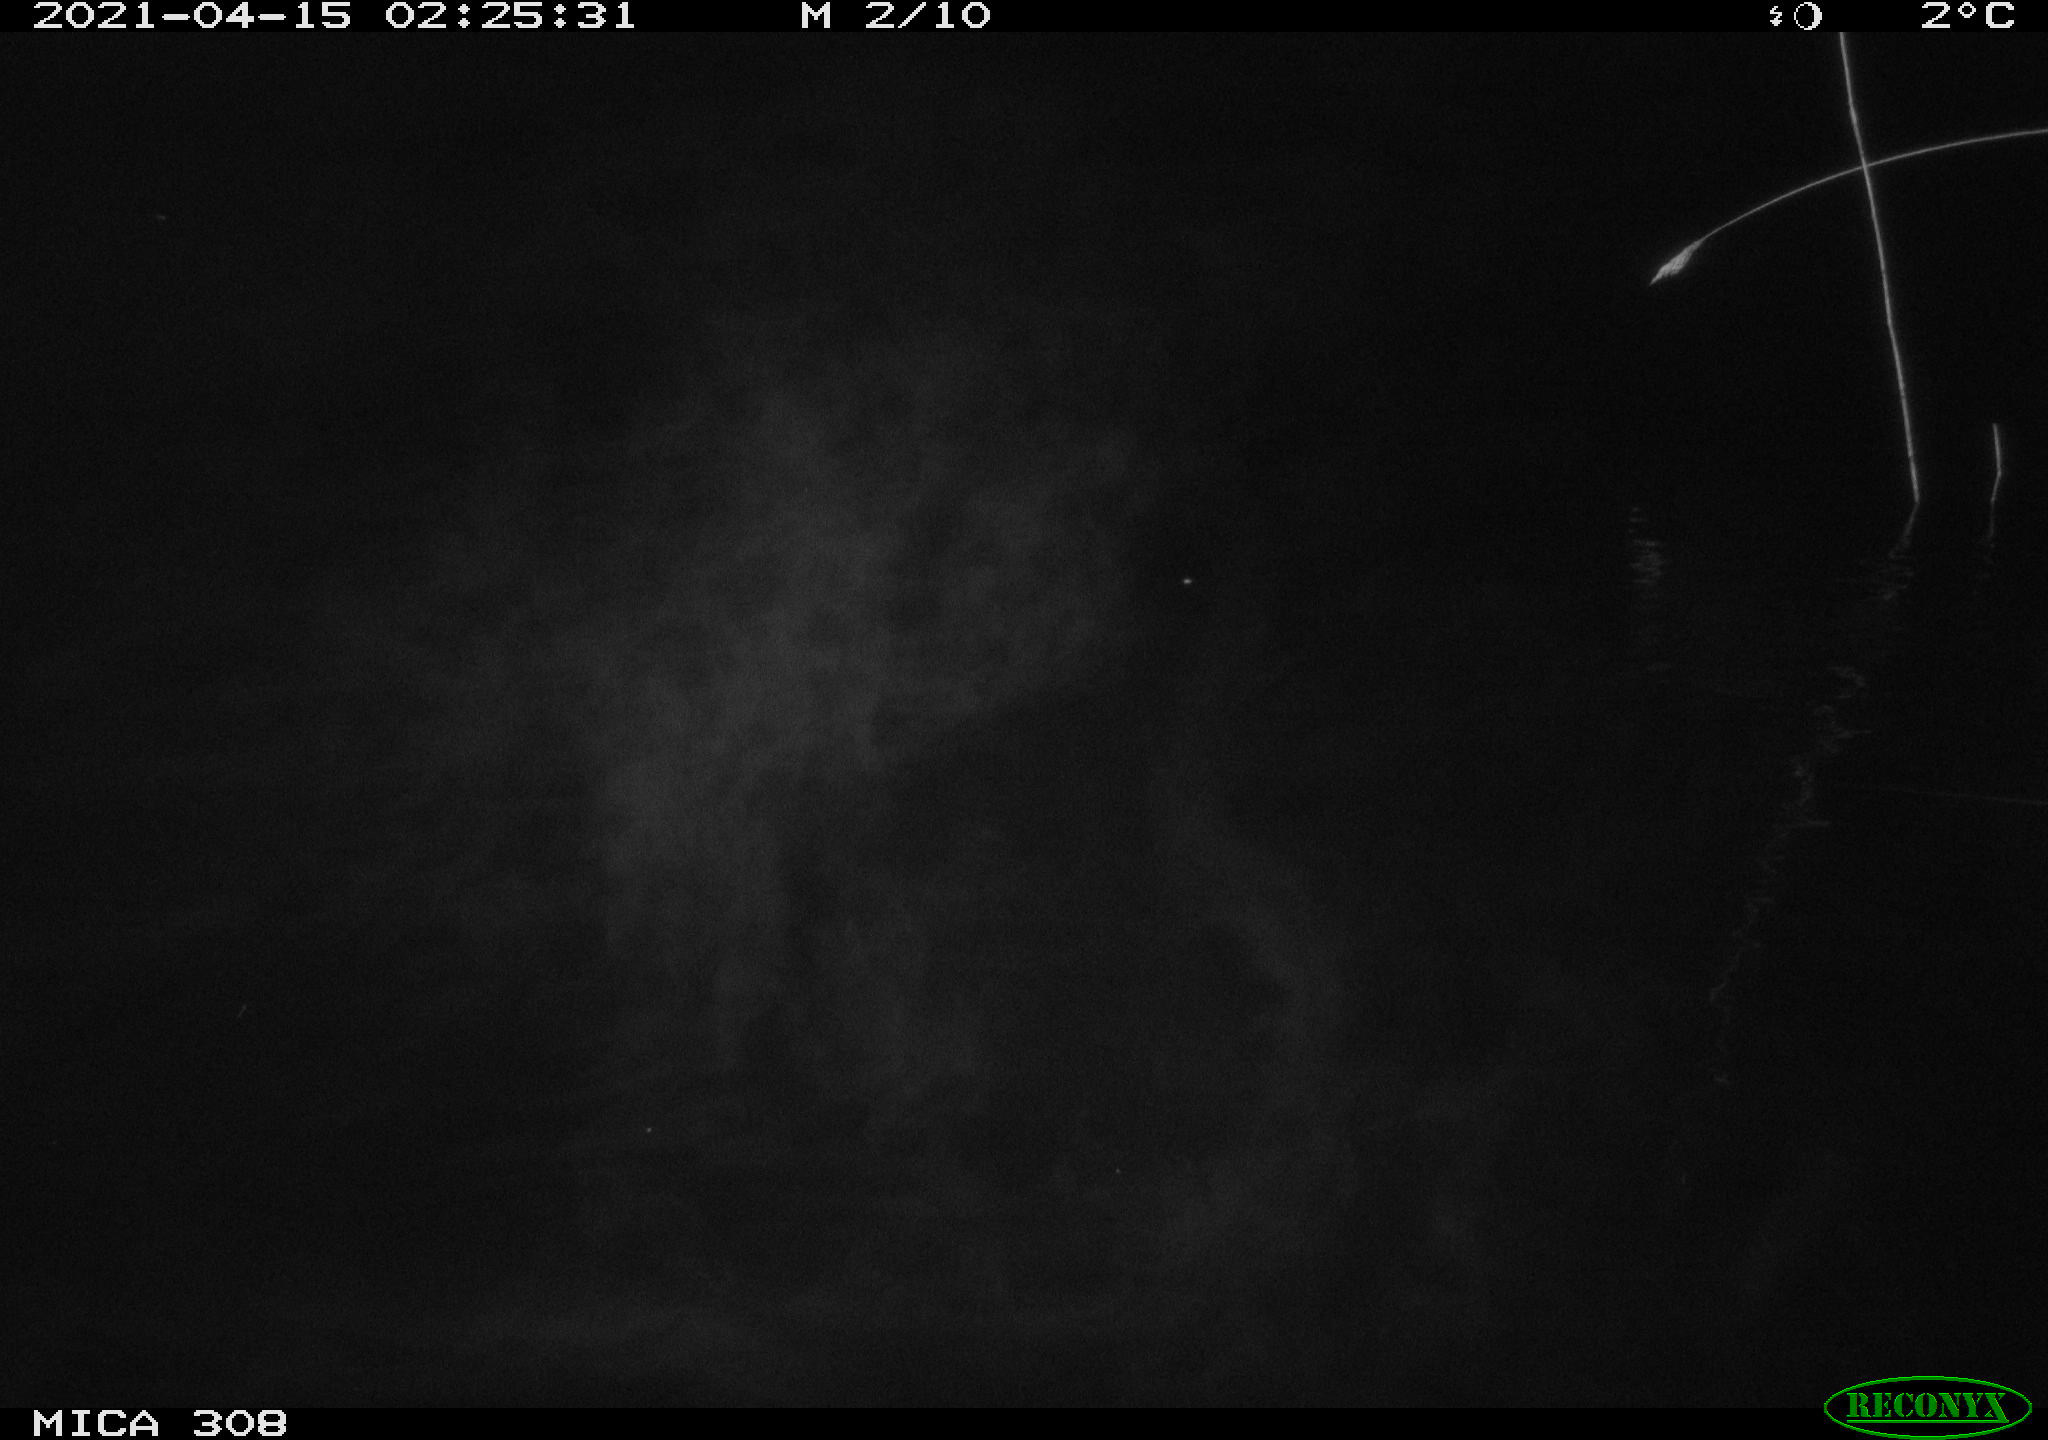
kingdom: Animalia
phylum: Chordata
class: Aves
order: Anseriformes
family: Anatidae
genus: Anas
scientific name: Anas platyrhynchos
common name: Mallard
